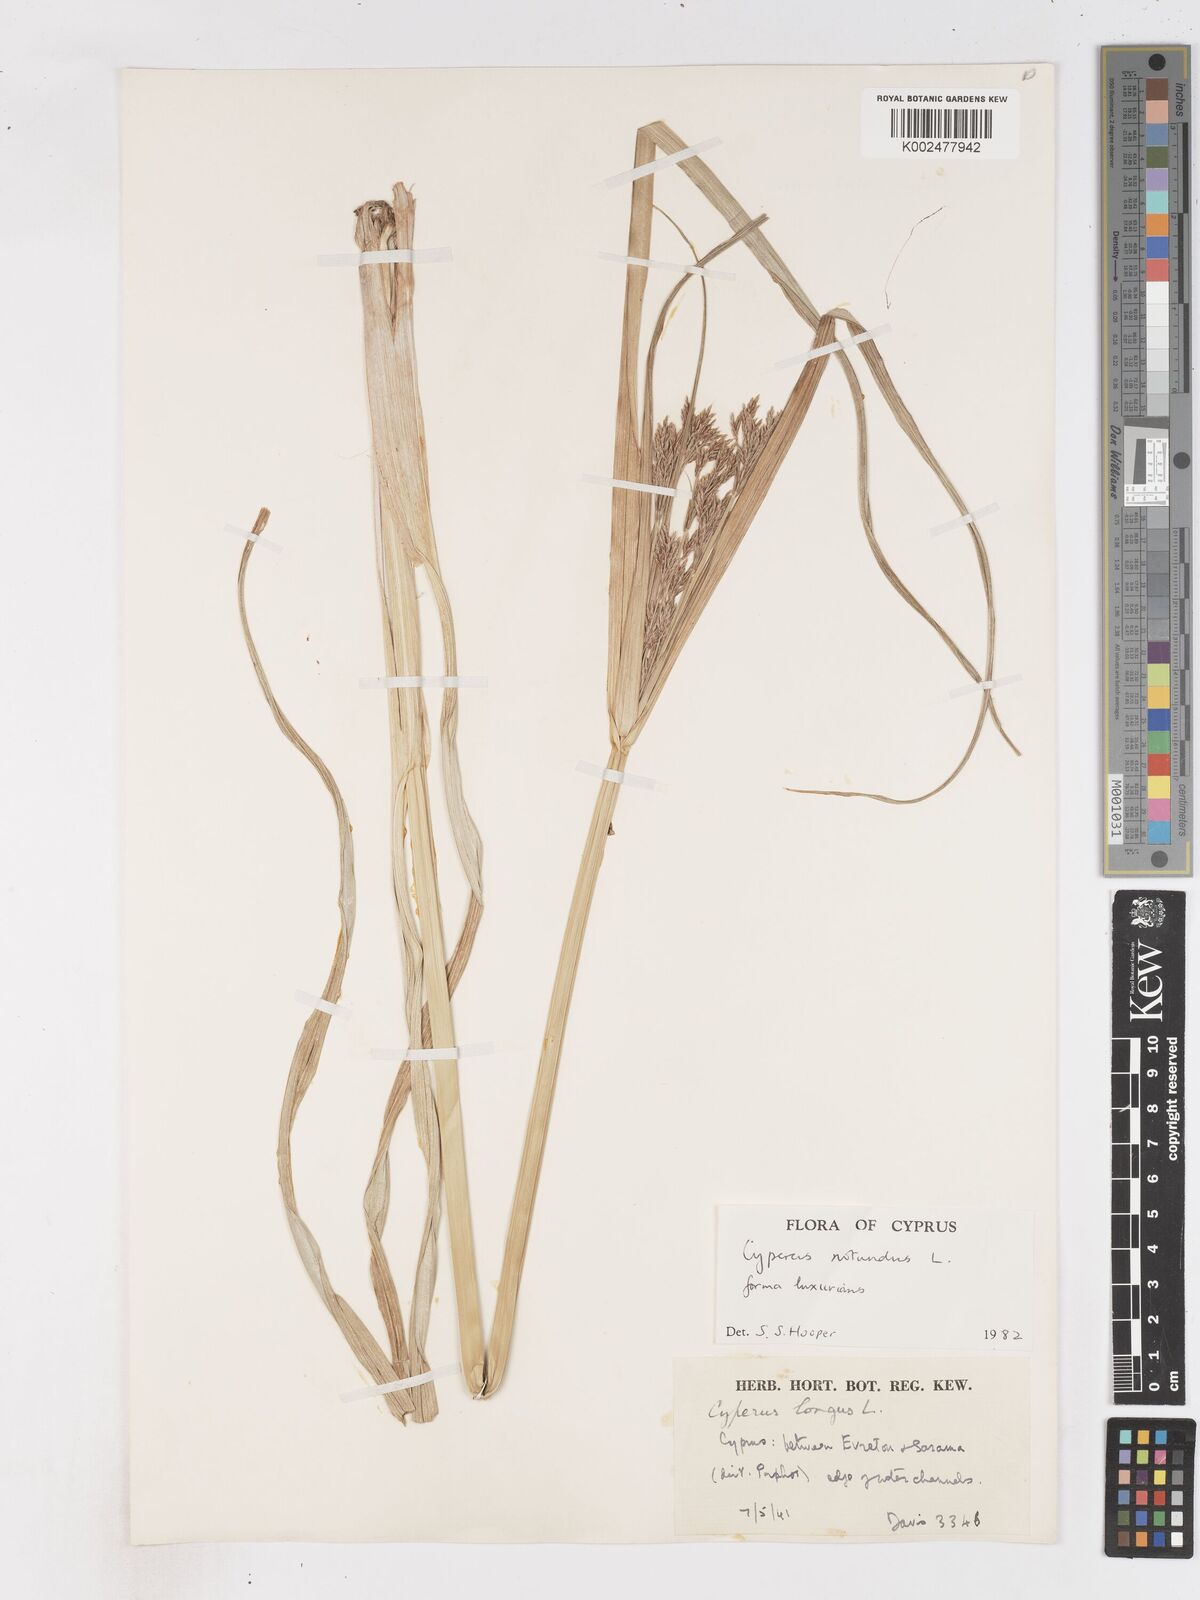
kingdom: Plantae
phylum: Tracheophyta
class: Liliopsida
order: Poales
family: Cyperaceae
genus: Cyperus
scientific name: Cyperus rotundus
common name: Nutgrass
